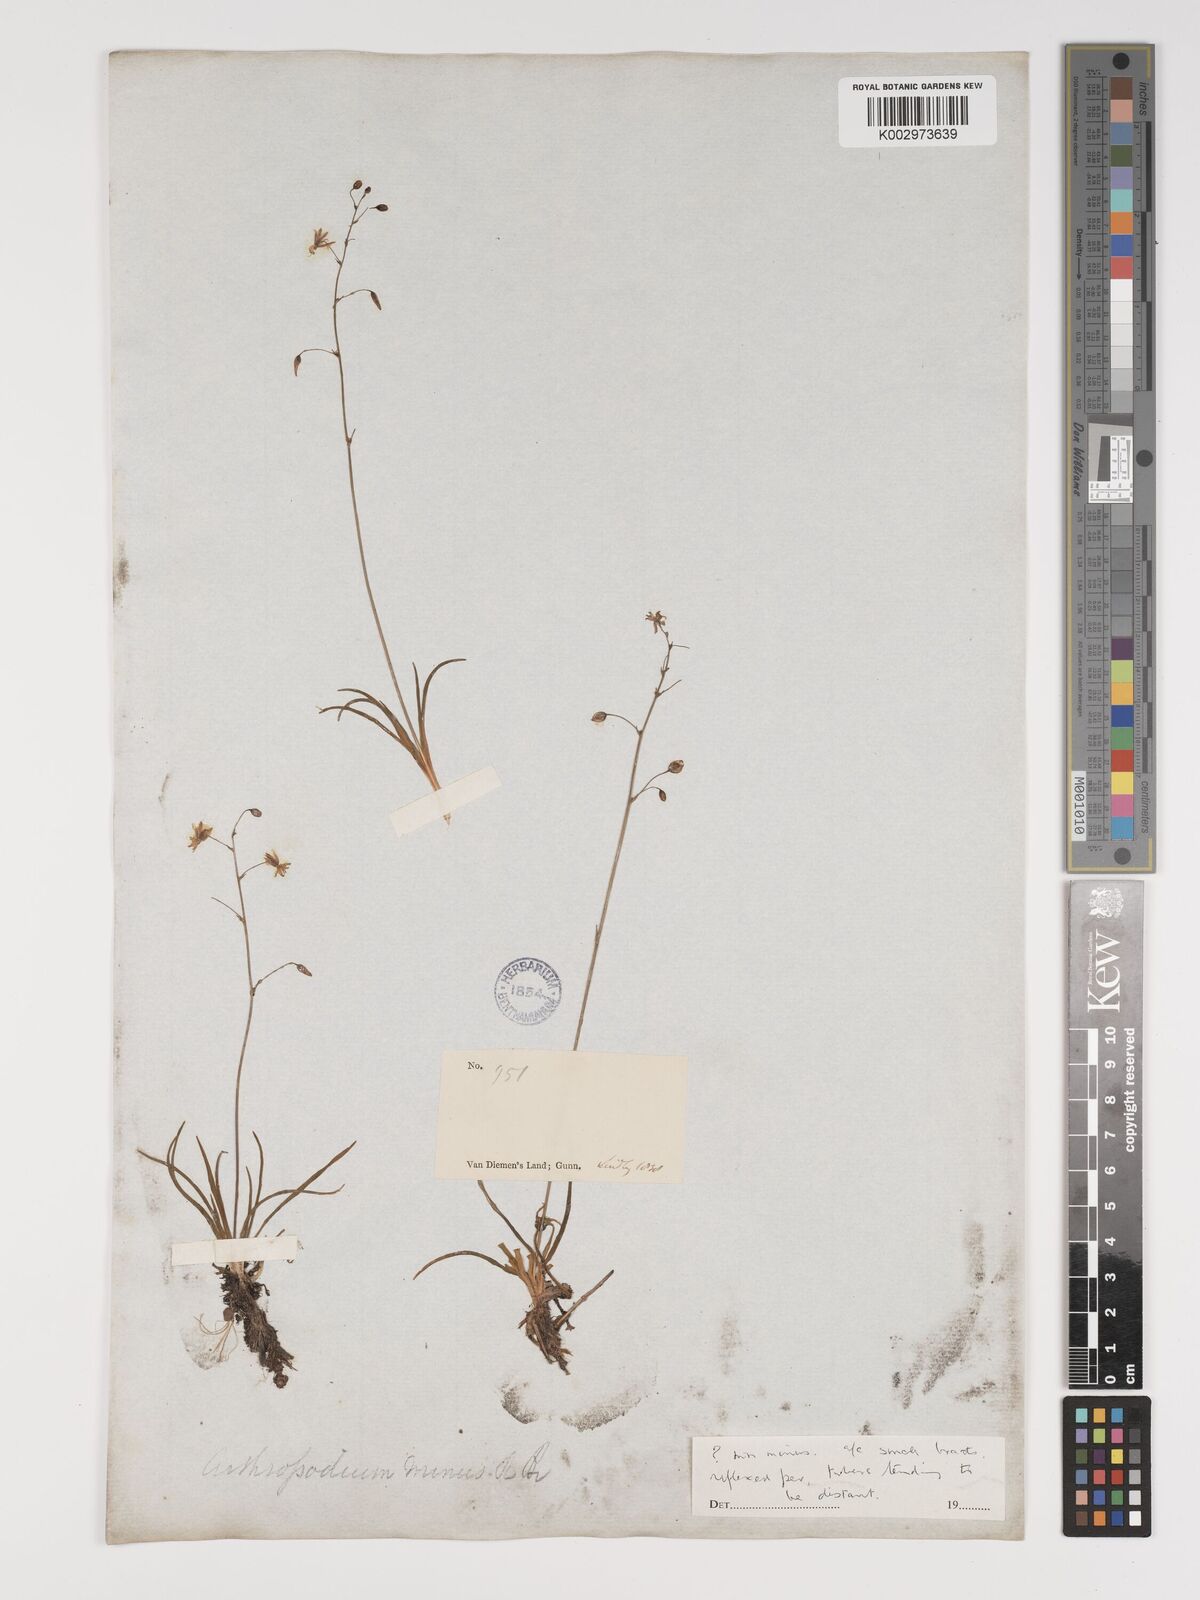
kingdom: Plantae
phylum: Tracheophyta
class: Liliopsida
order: Asparagales
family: Asparagaceae
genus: Arthropodium
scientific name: Arthropodium milleflorum
